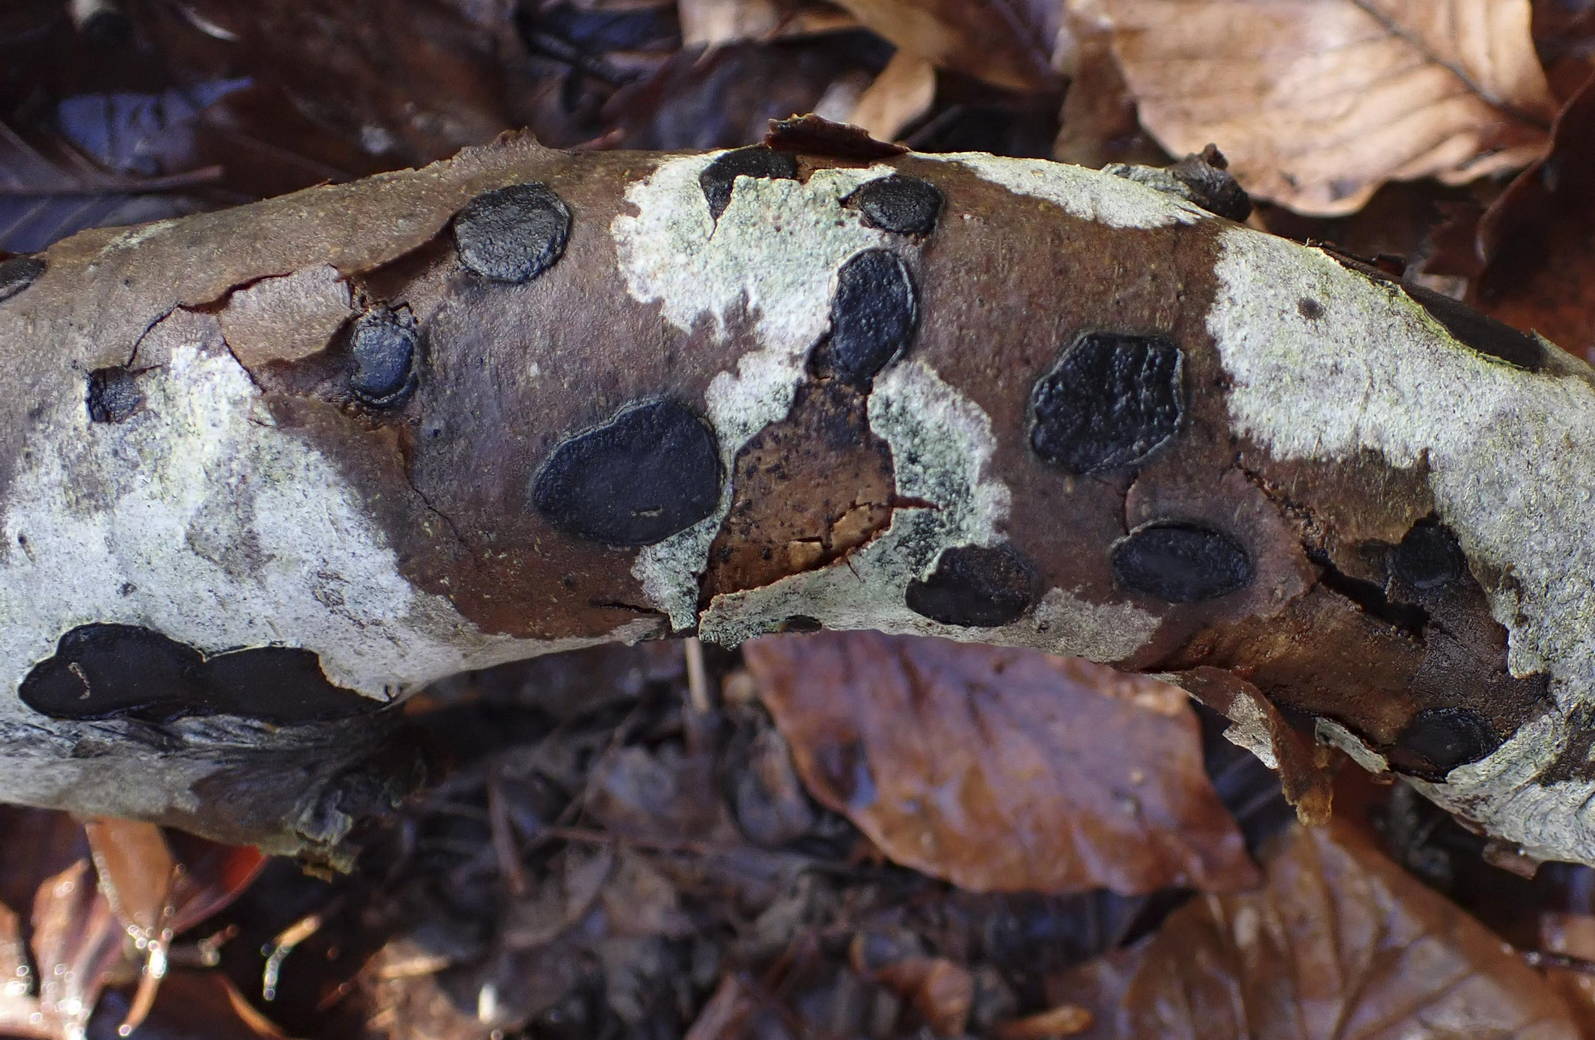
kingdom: Fungi
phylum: Ascomycota
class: Sordariomycetes
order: Xylariales
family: Graphostromataceae
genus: Biscogniauxia
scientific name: Biscogniauxia nummularia
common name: bøge-kulskive
